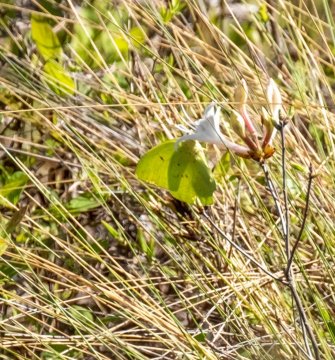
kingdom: Animalia
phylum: Arthropoda
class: Insecta
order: Lepidoptera
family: Pieridae
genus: Phoebis
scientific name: Phoebis sennae
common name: Cloudless Sulphur
